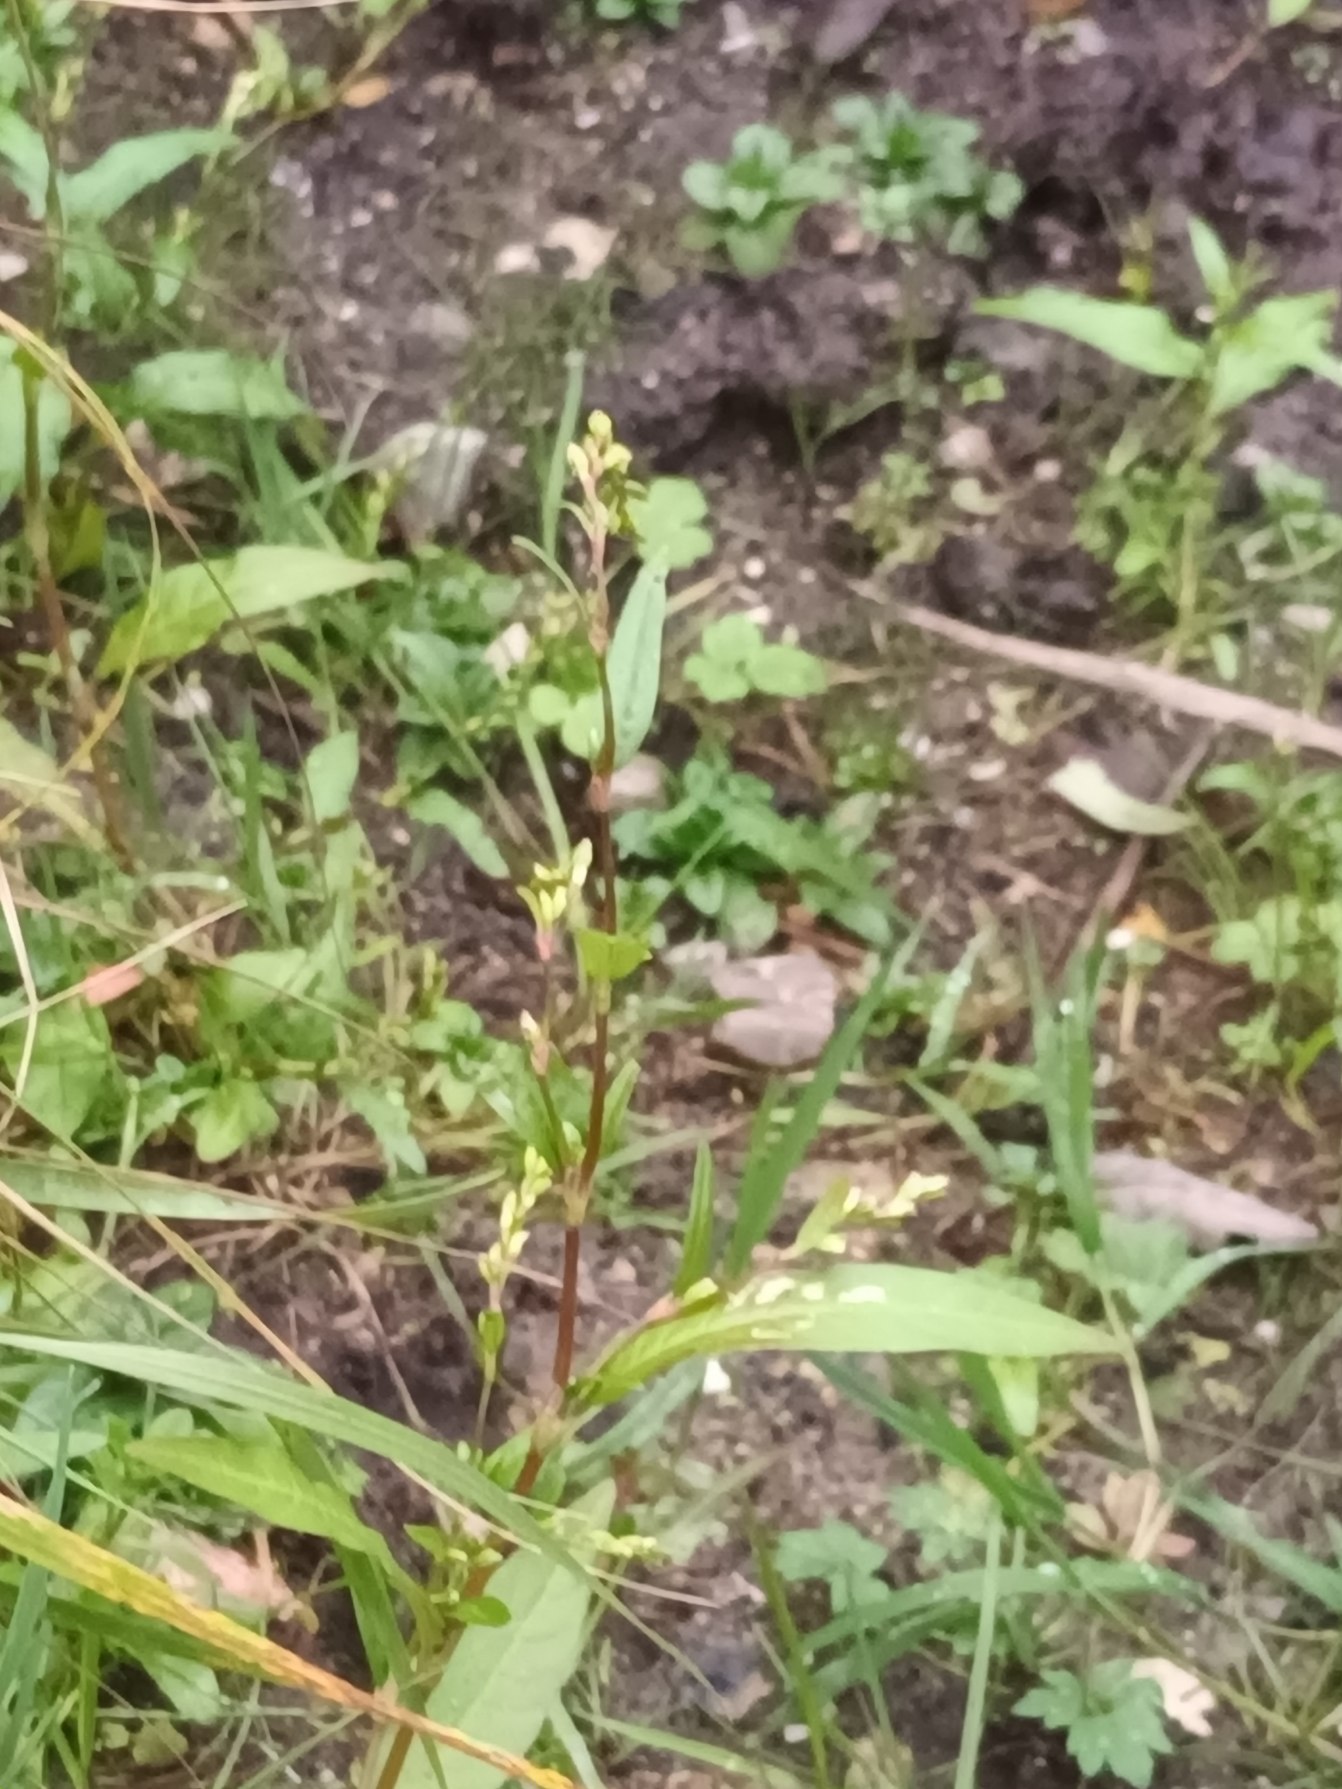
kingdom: Plantae
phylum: Tracheophyta
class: Magnoliopsida
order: Caryophyllales
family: Polygonaceae
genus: Persicaria
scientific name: Persicaria hydropiper
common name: Bidende pileurt
